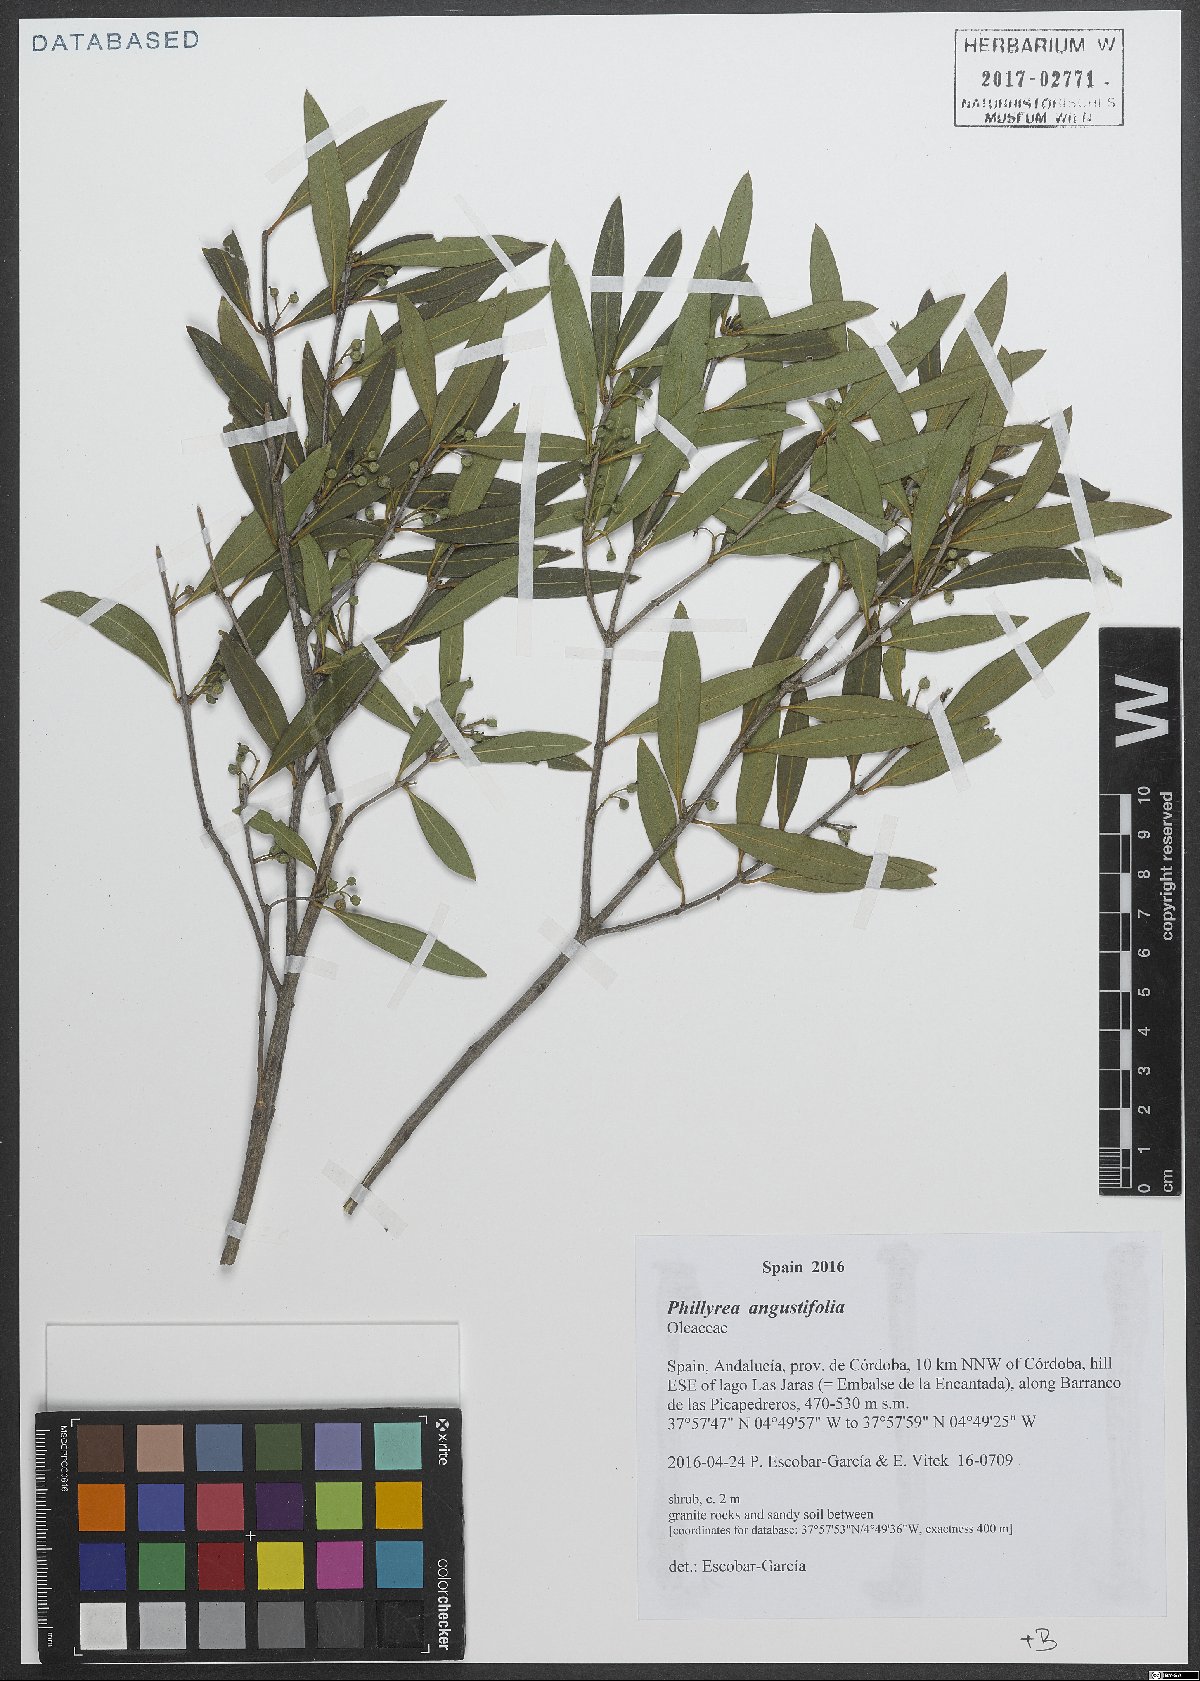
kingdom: Plantae
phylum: Tracheophyta
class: Magnoliopsida
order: Lamiales
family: Oleaceae
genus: Phillyrea
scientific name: Phillyrea angustifolia
